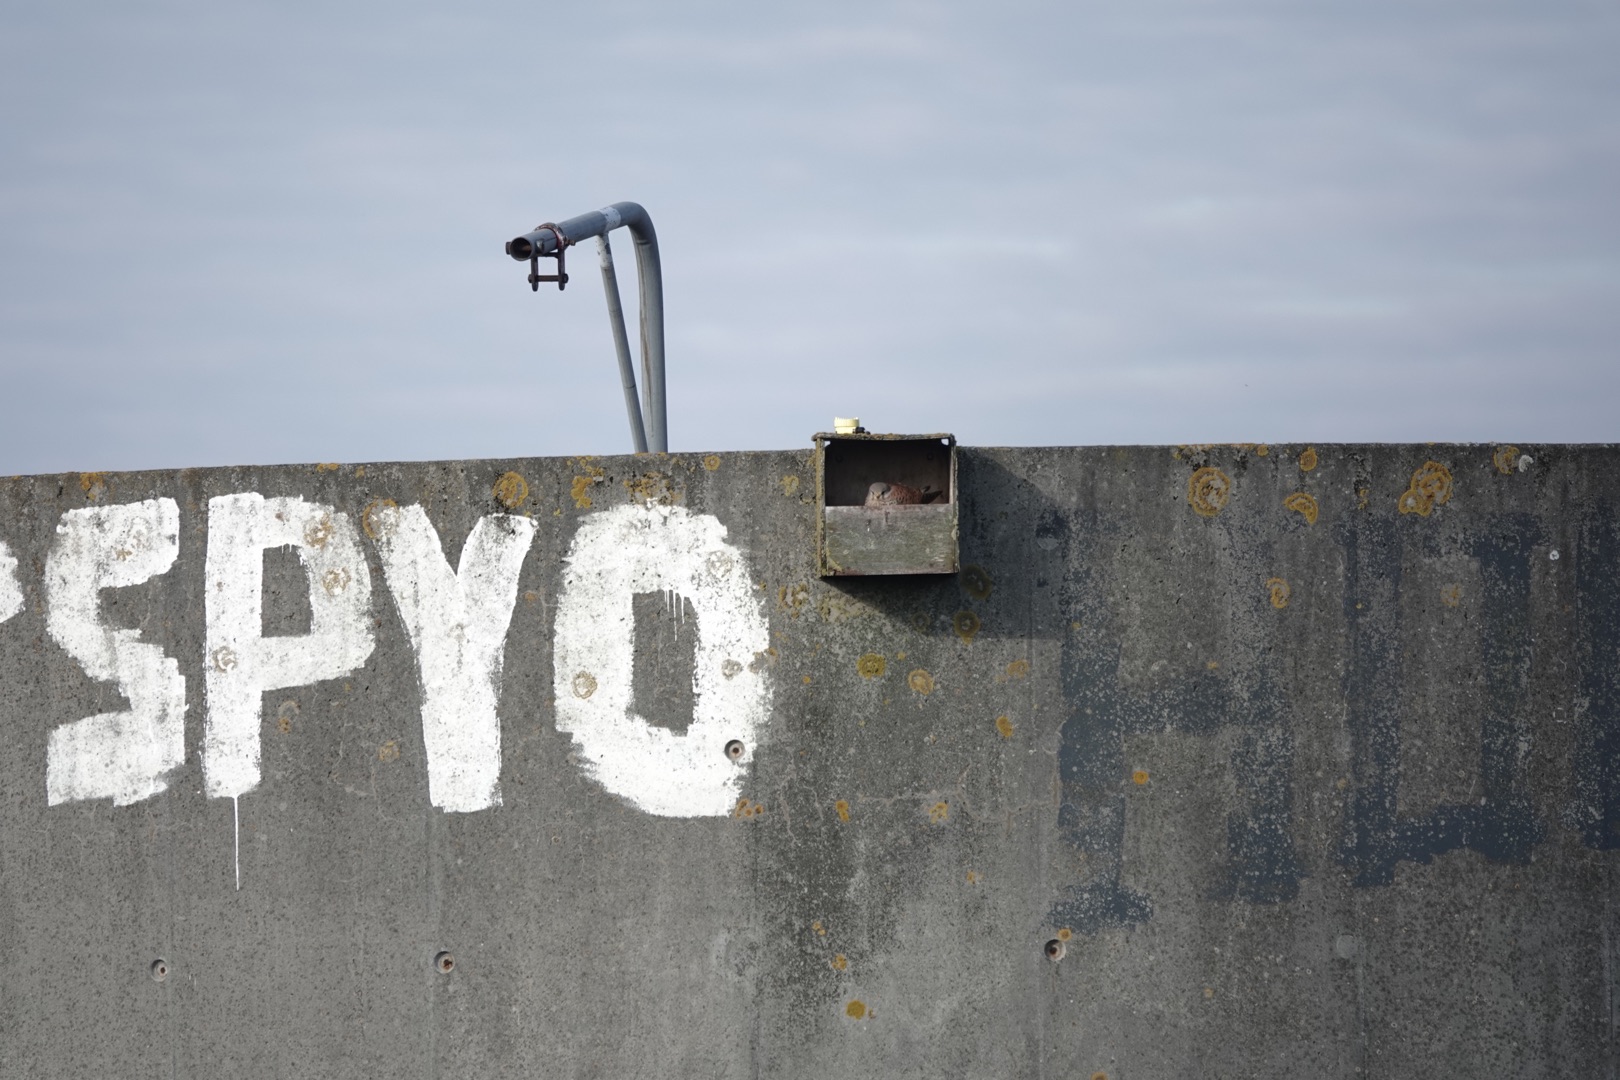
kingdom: Animalia
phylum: Chordata
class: Aves
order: Falconiformes
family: Falconidae
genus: Falco
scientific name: Falco tinnunculus
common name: Tårnfalk
